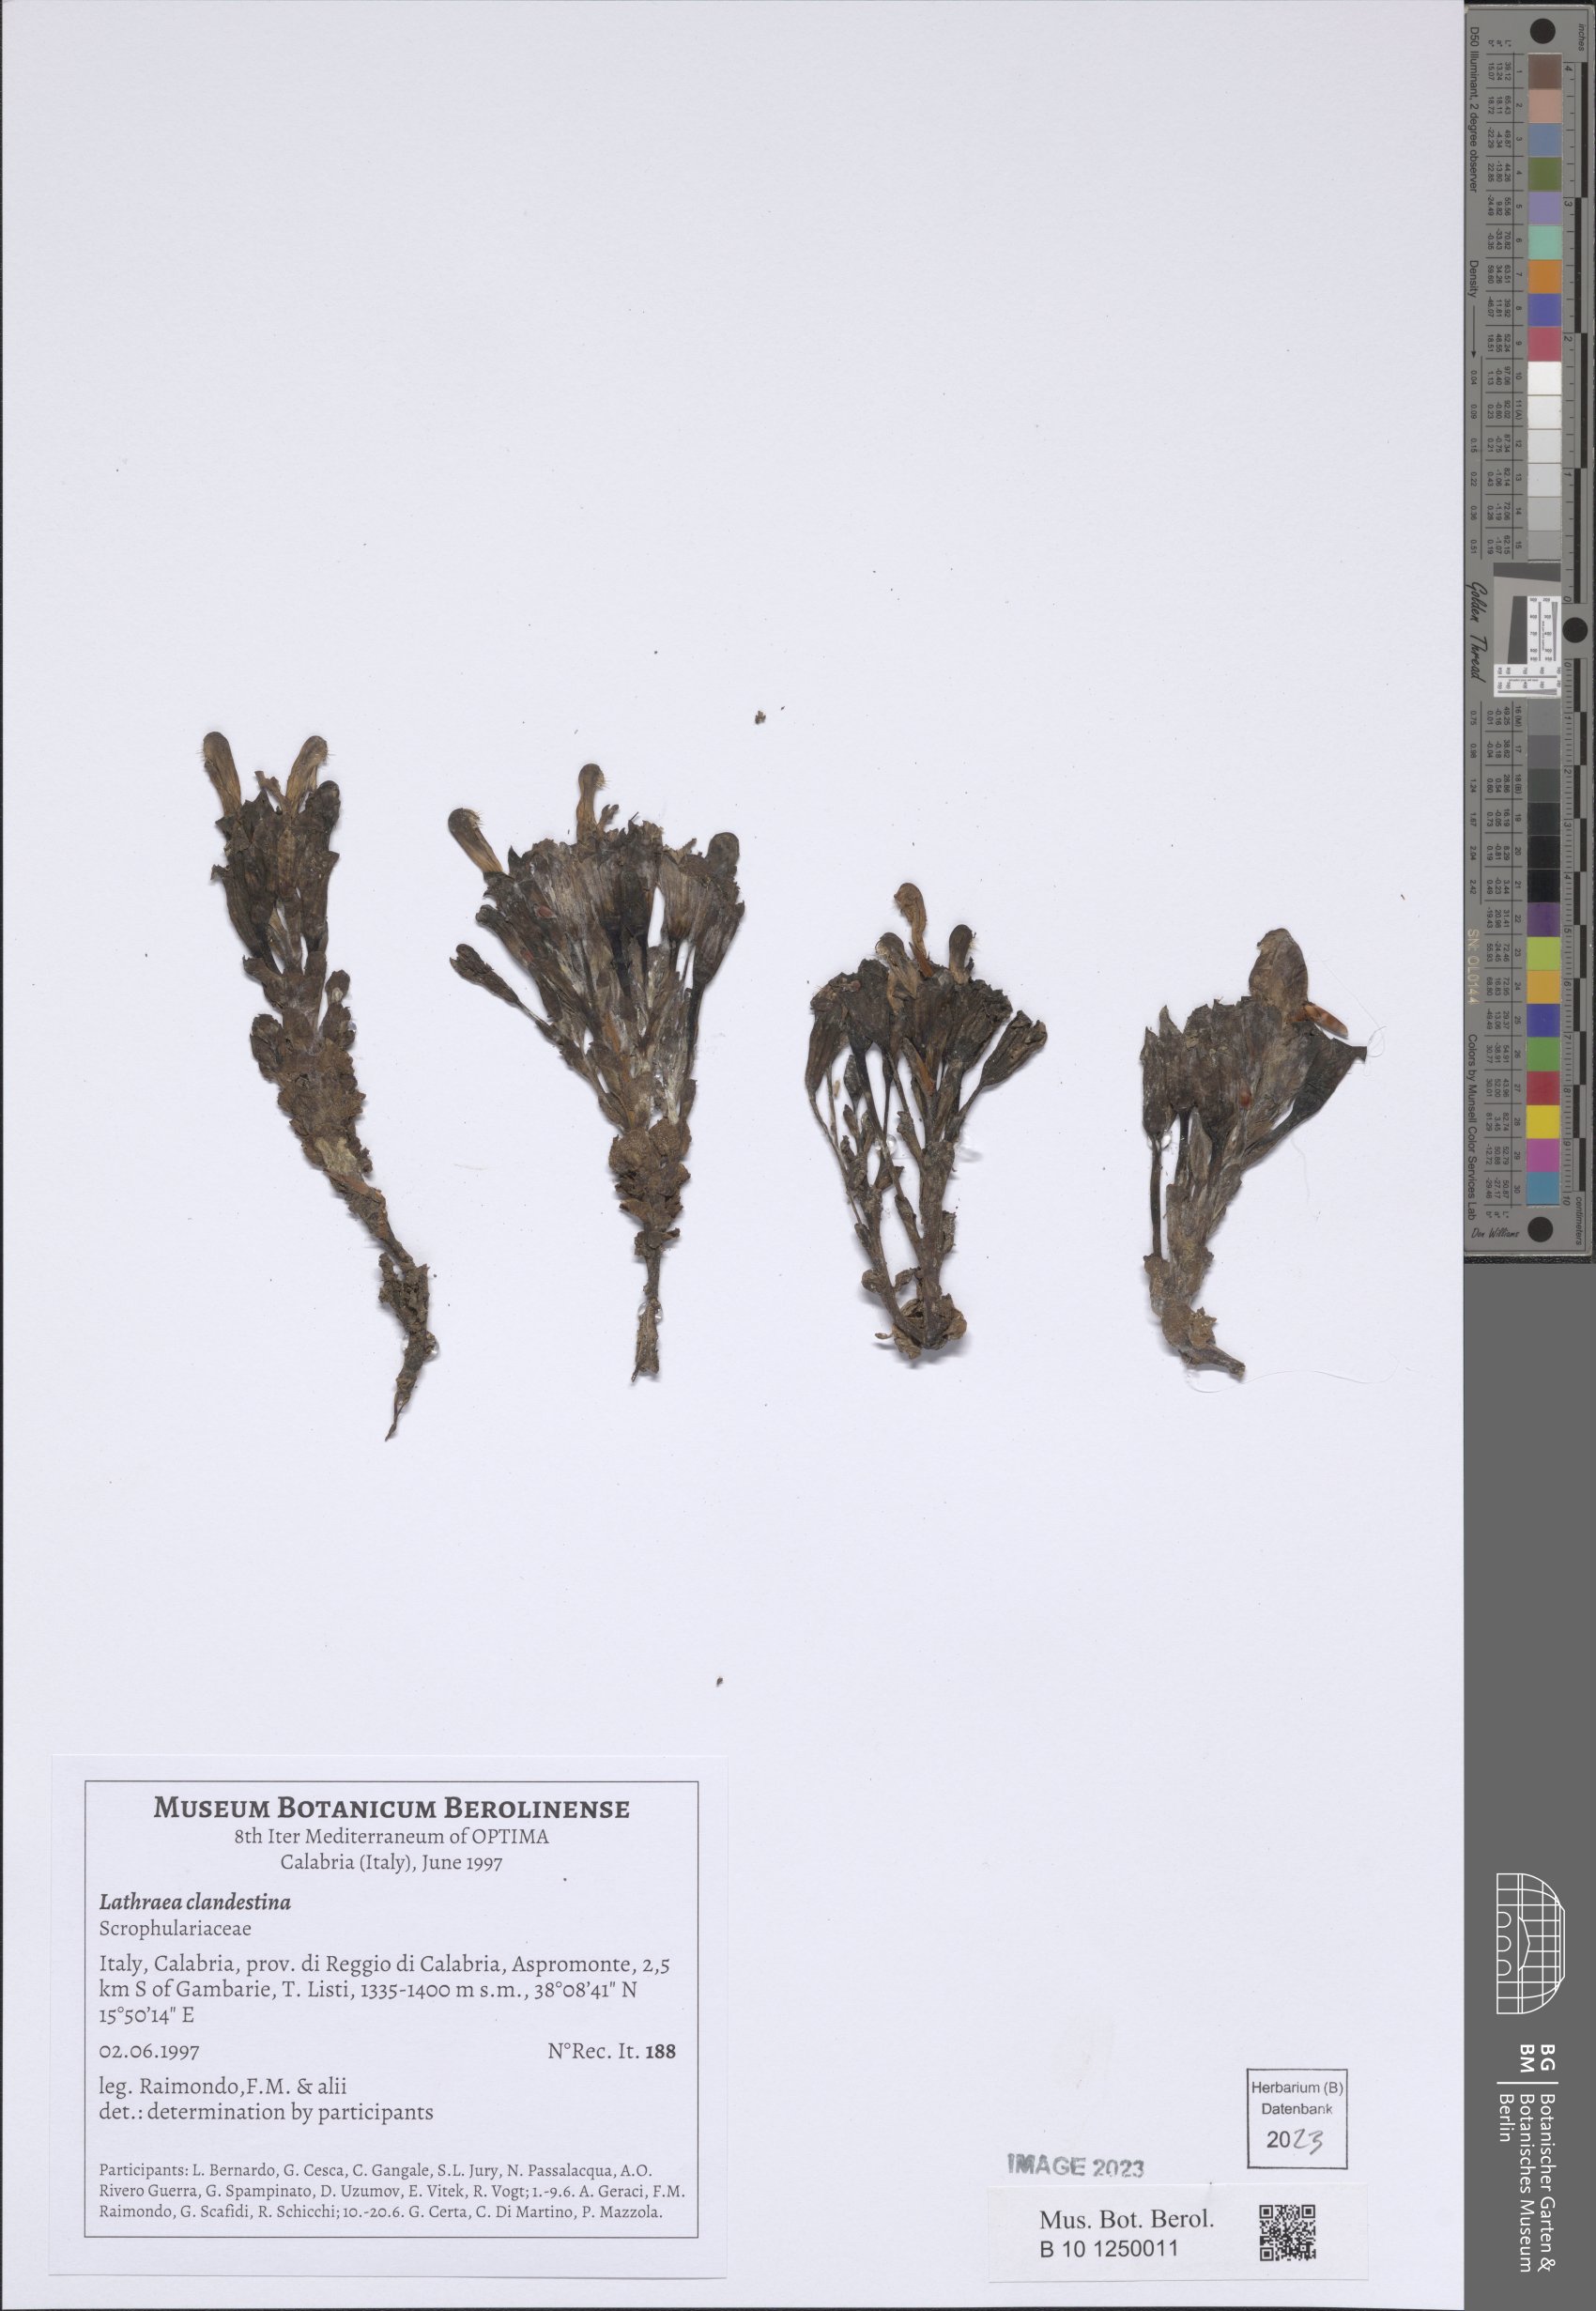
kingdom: Plantae
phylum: Tracheophyta
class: Magnoliopsida
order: Lamiales
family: Orobanchaceae
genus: Lathraea
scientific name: Lathraea clandestina
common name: Purple toothwort
